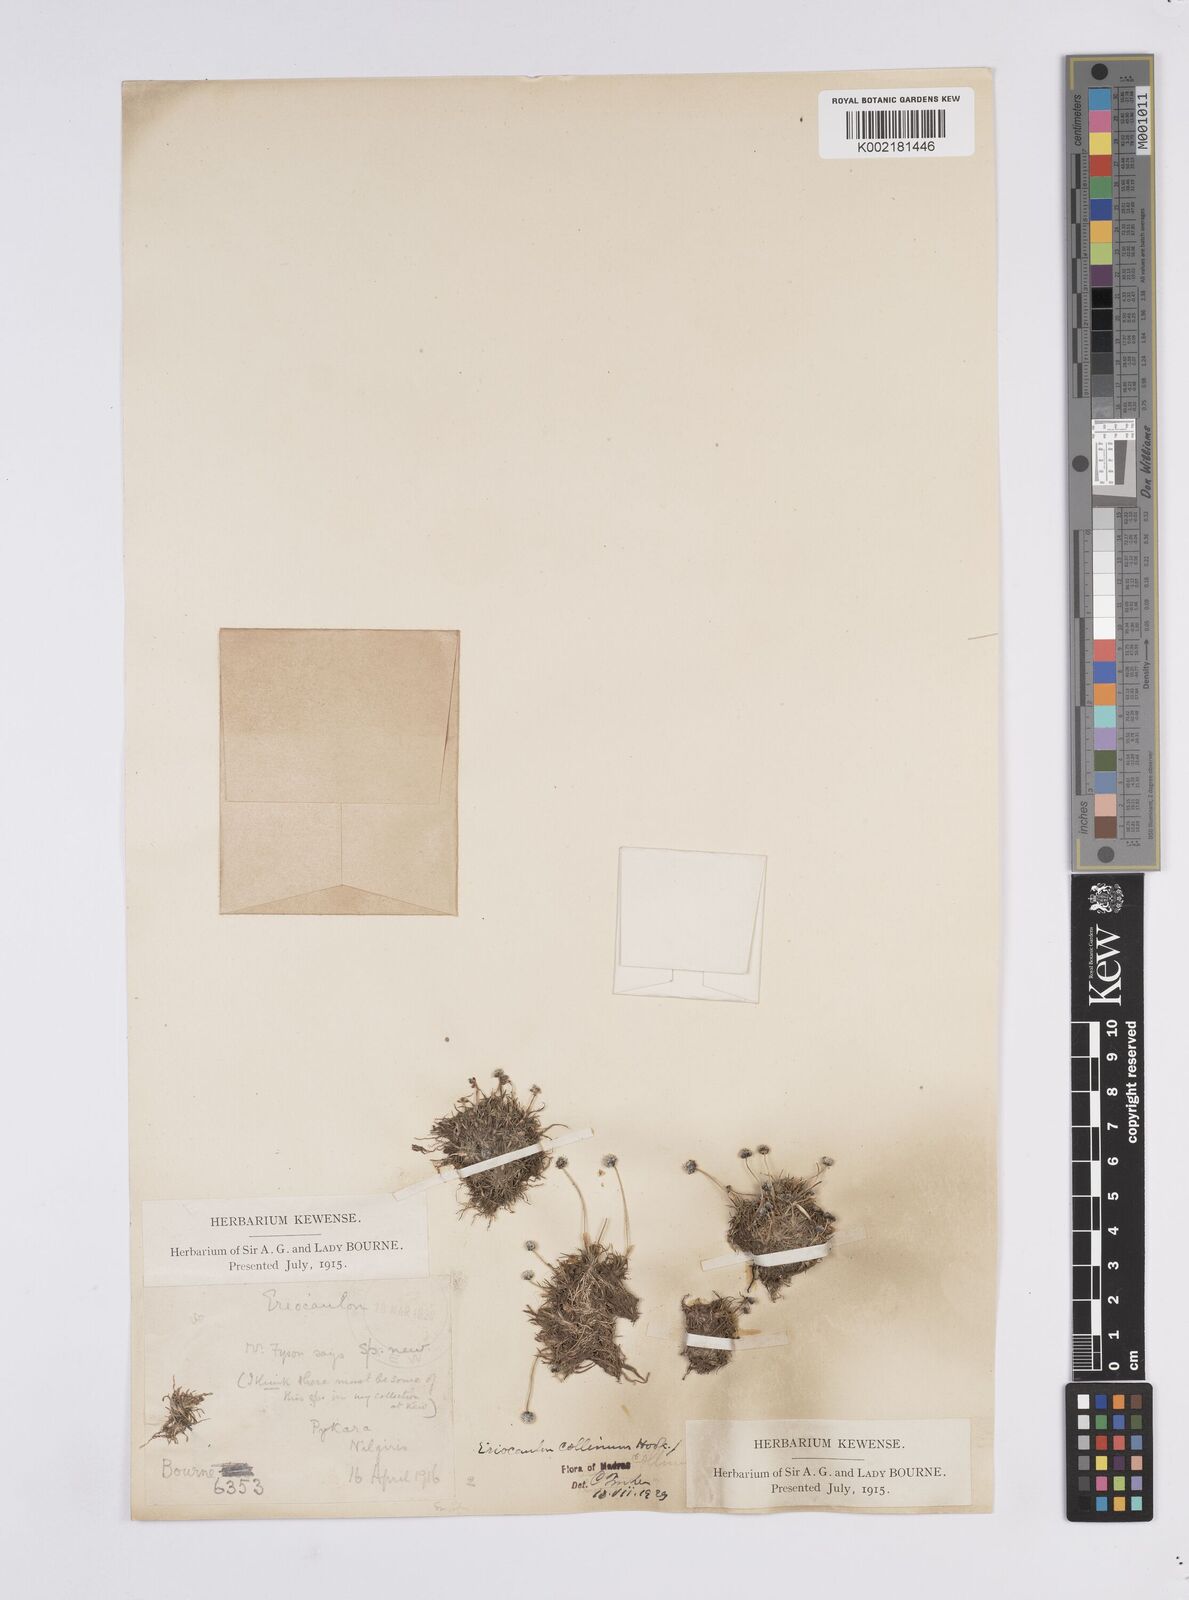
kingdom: Plantae
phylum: Tracheophyta
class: Liliopsida
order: Poales
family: Eriocaulaceae
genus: Eriocaulon
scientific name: Eriocaulon odoratum
